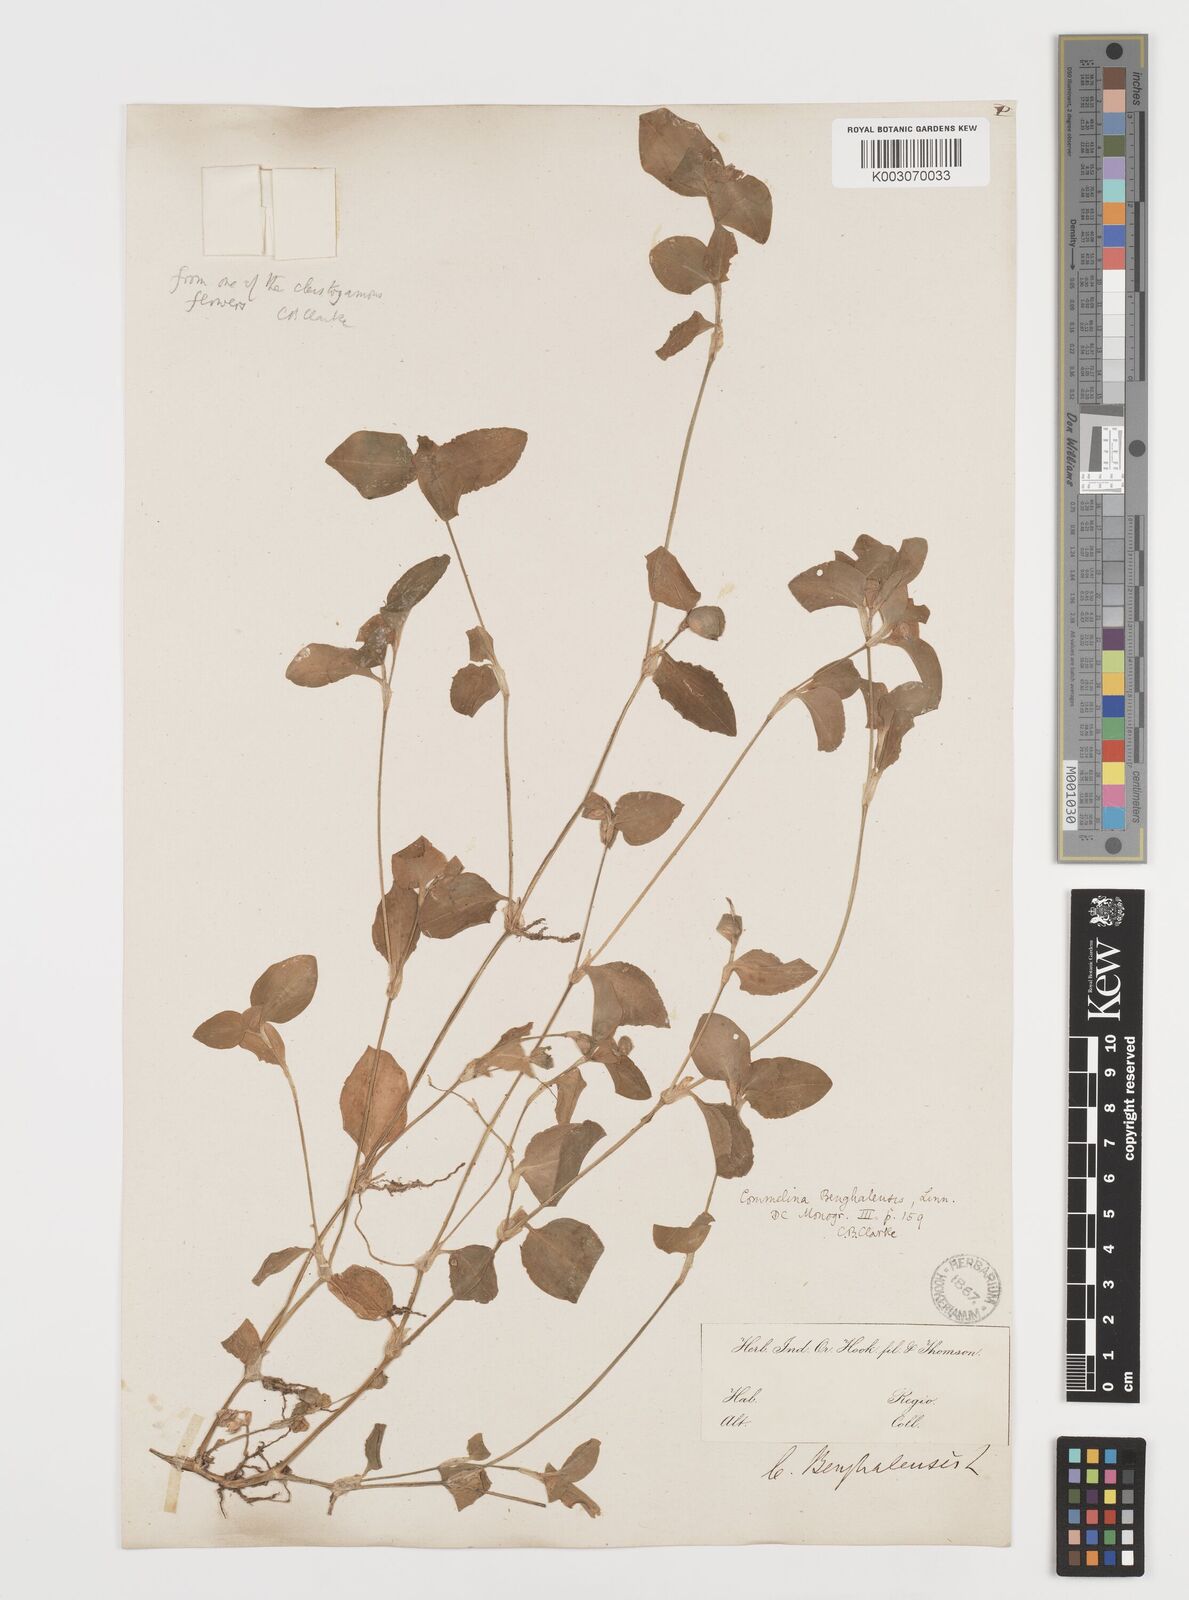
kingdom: Plantae
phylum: Tracheophyta
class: Liliopsida
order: Commelinales
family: Commelinaceae
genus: Commelina
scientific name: Commelina
